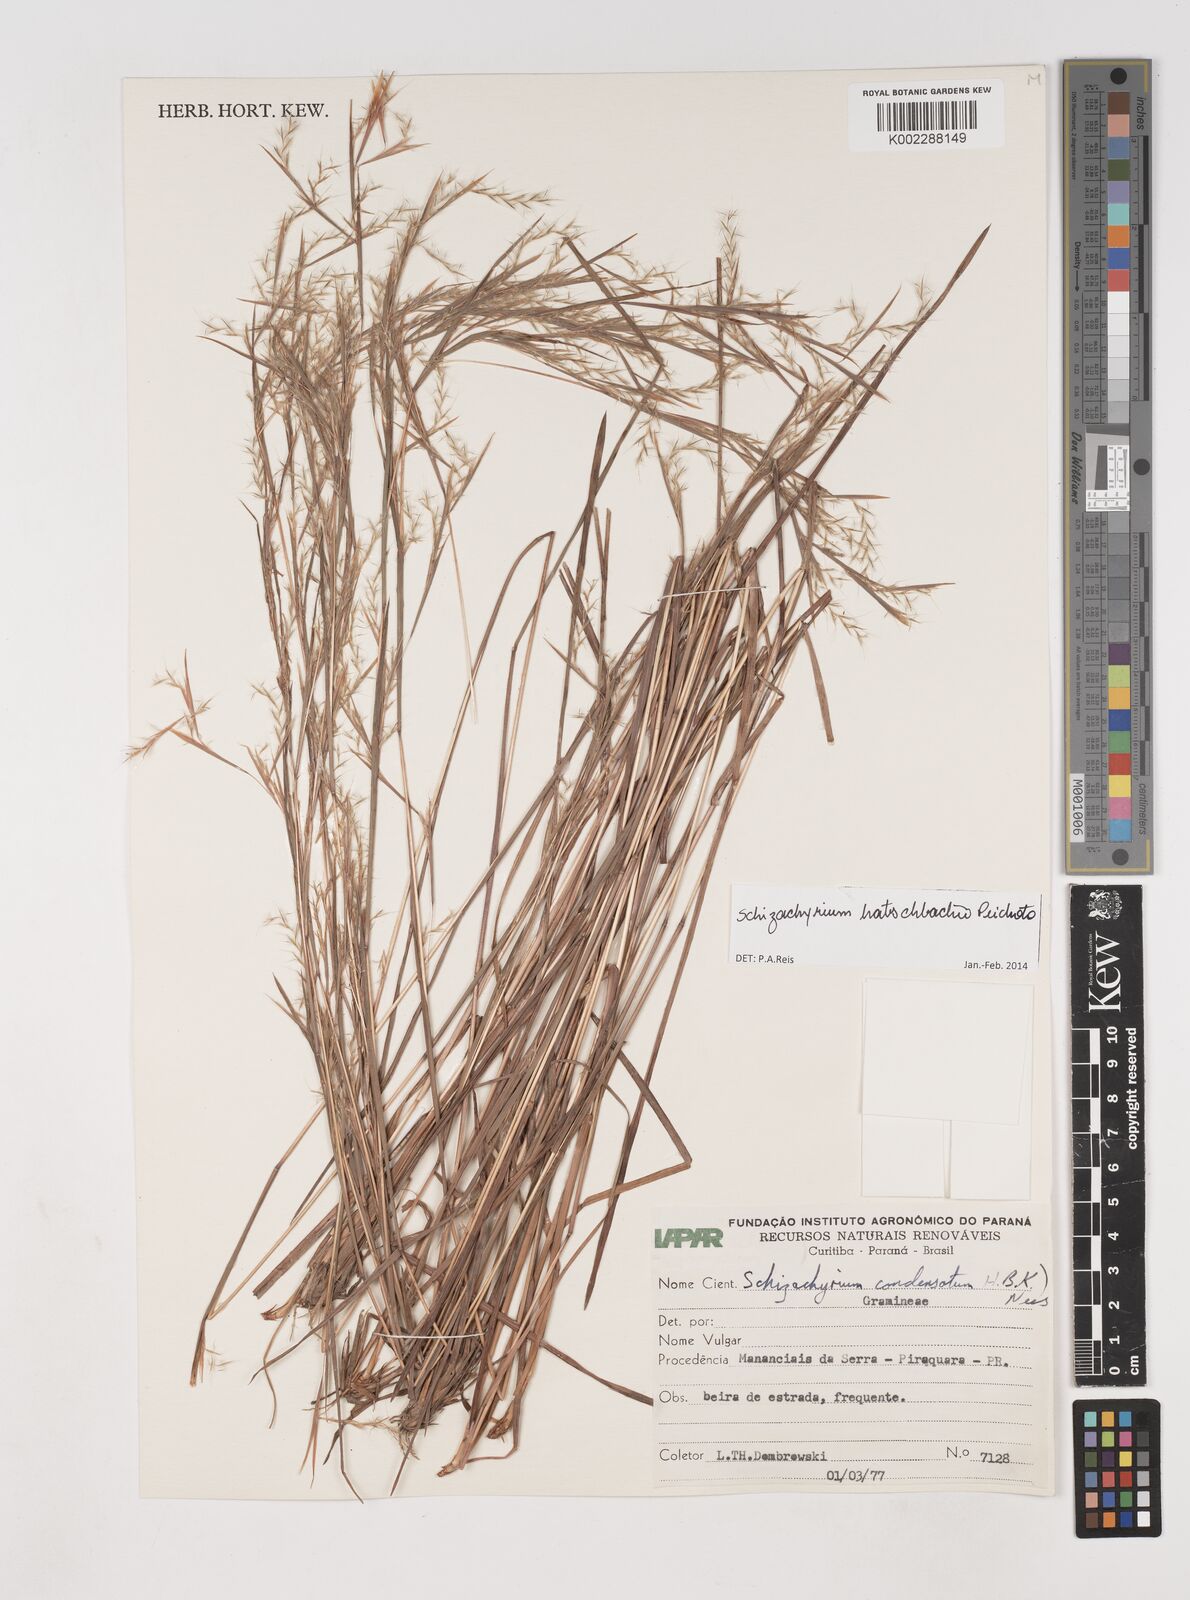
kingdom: Plantae
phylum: Tracheophyta
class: Liliopsida
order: Poales
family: Poaceae
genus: Schizachyrium
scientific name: Schizachyrium hatschbachii
